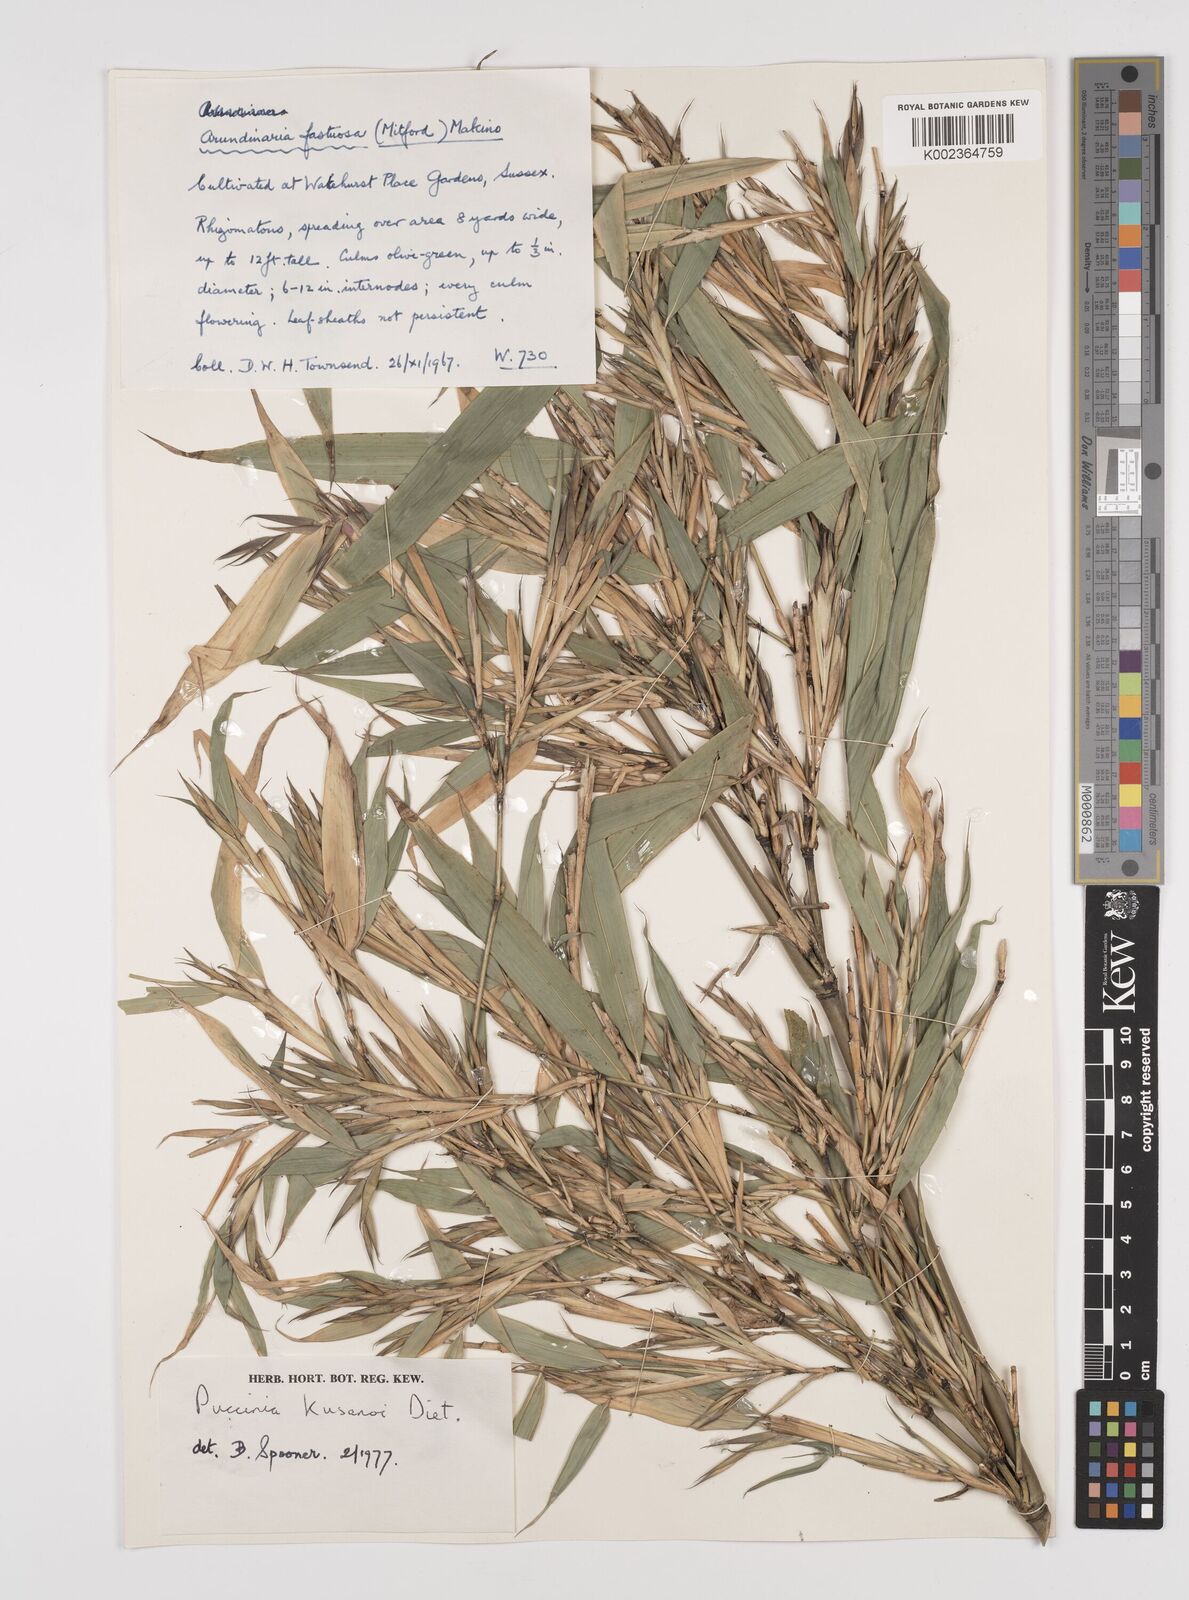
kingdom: Plantae
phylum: Tracheophyta
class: Liliopsida
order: Poales
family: Poaceae
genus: Semiarundinaria
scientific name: Semiarundinaria fastuosa
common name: Narihira bamboo
